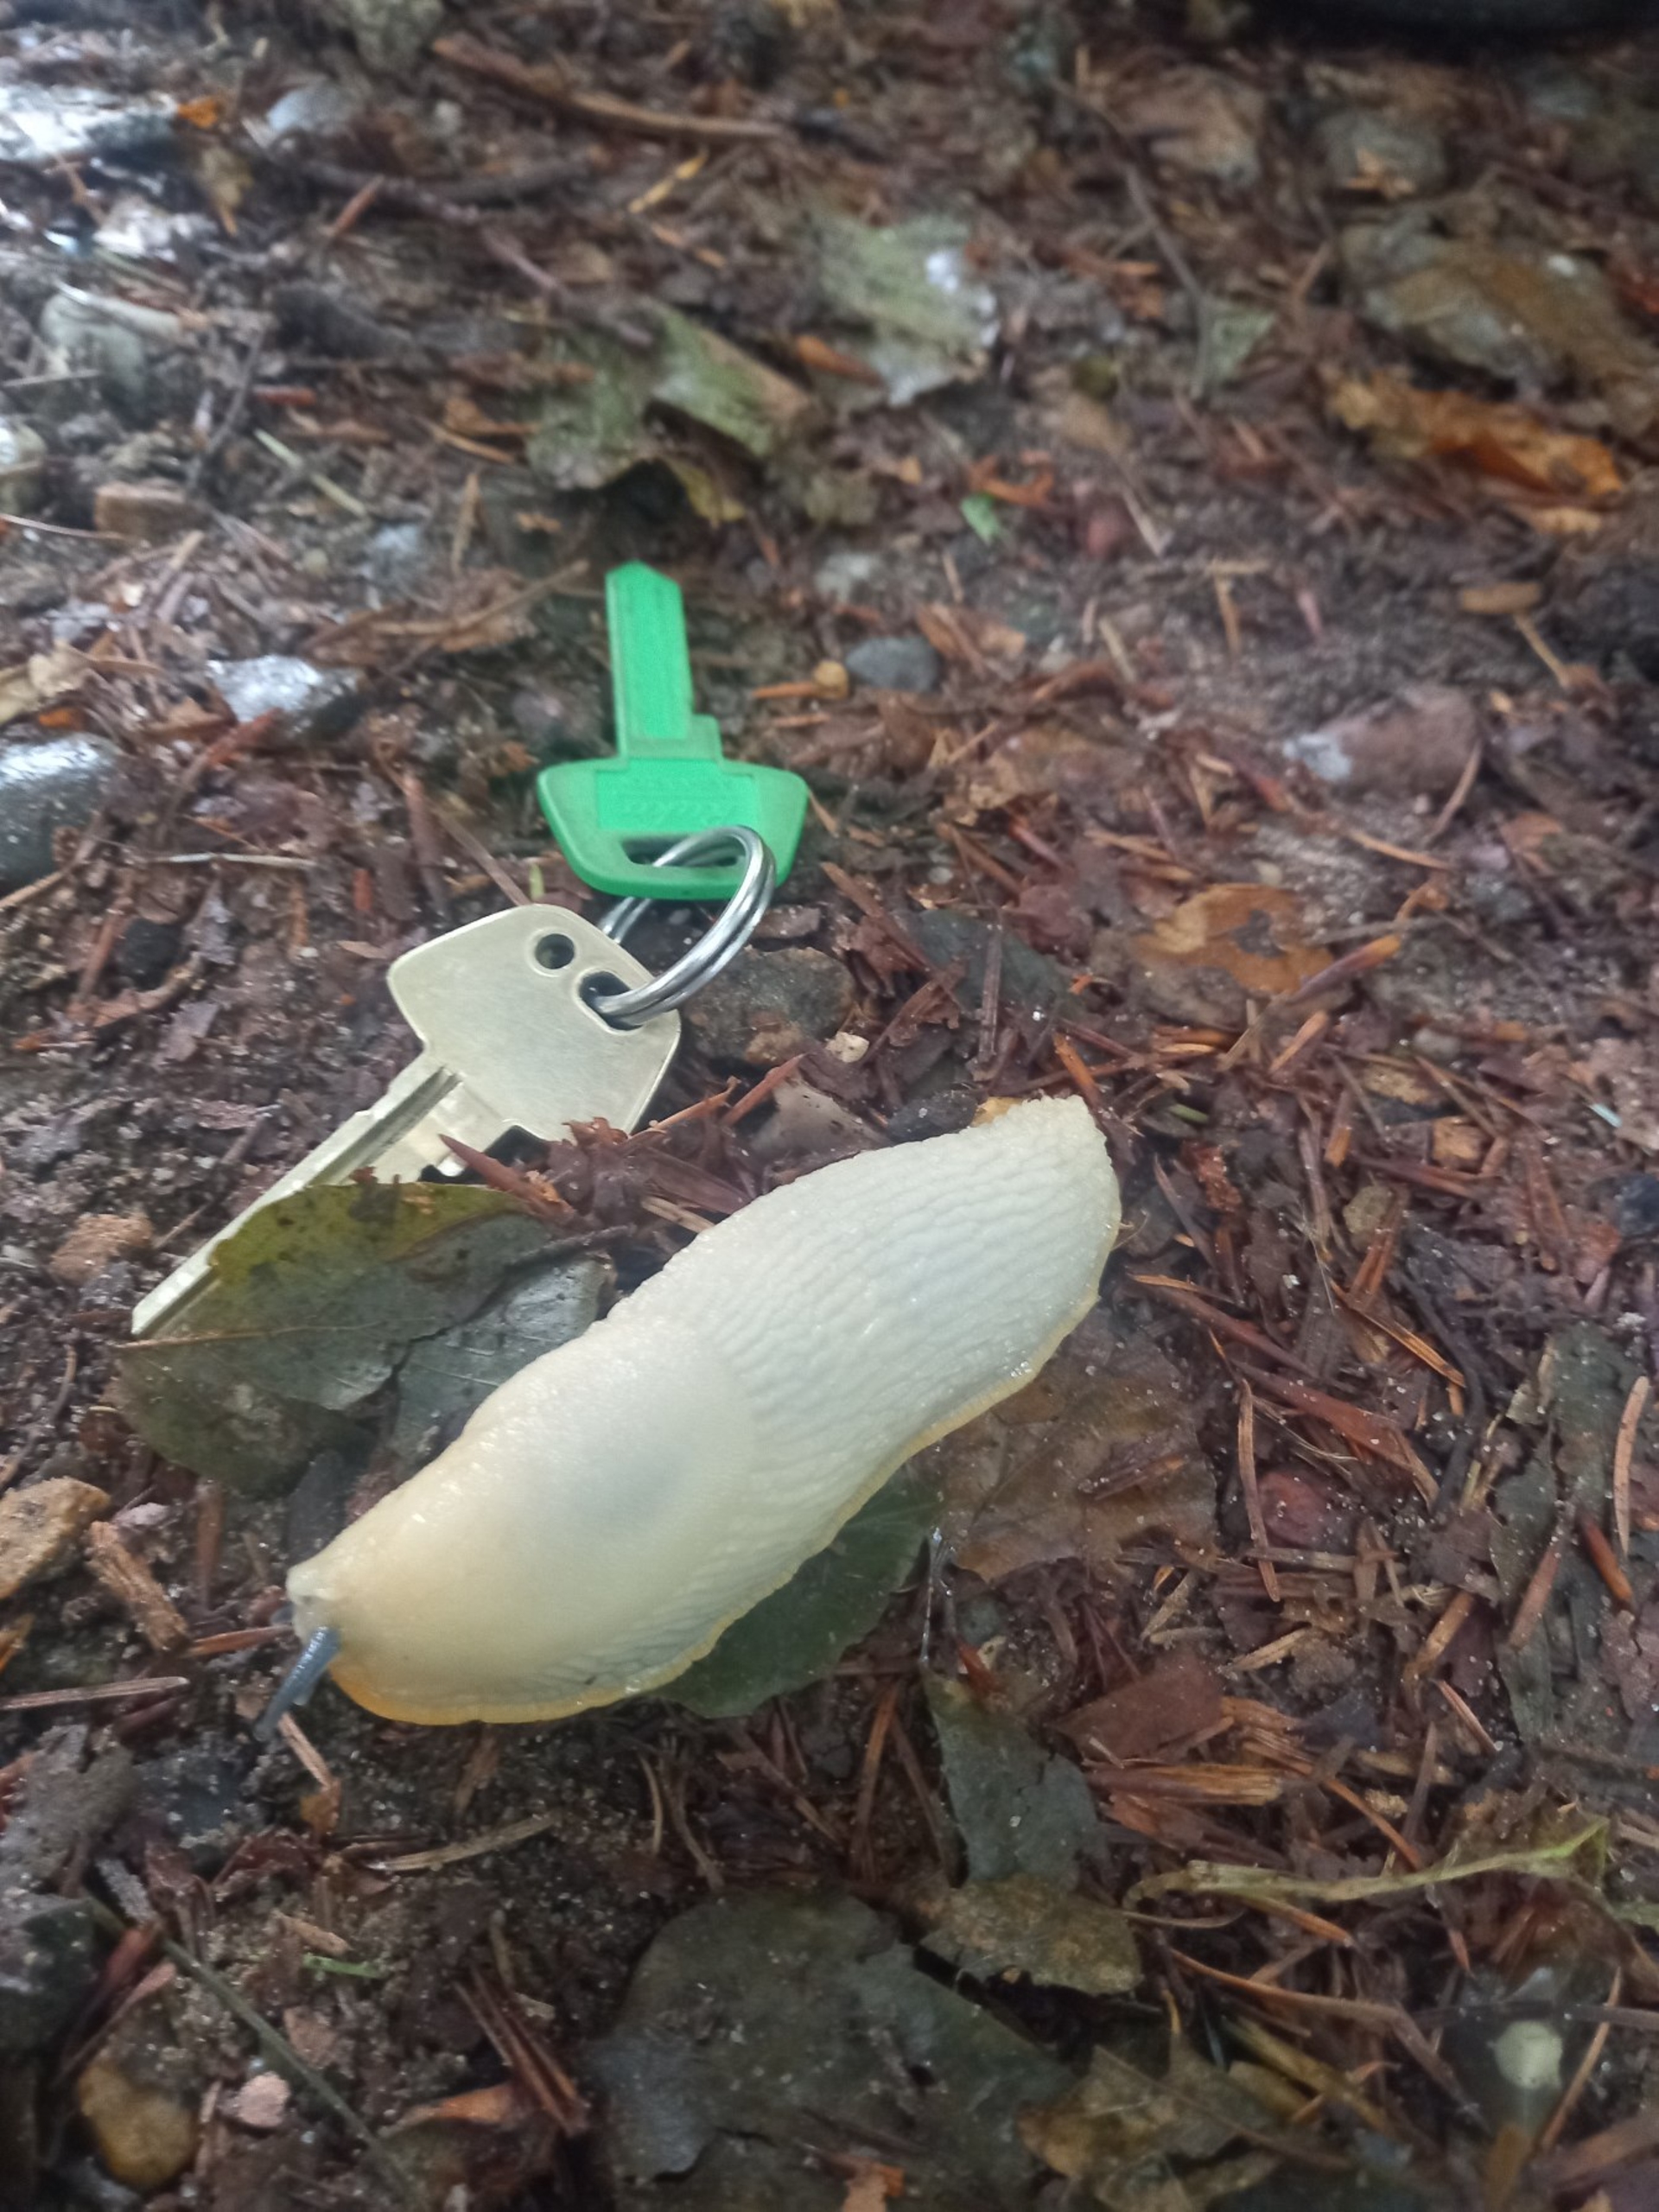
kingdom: Animalia
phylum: Mollusca
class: Gastropoda
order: Stylommatophora
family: Arionidae
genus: Arion
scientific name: Arion ater
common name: Sort skovsnegl
